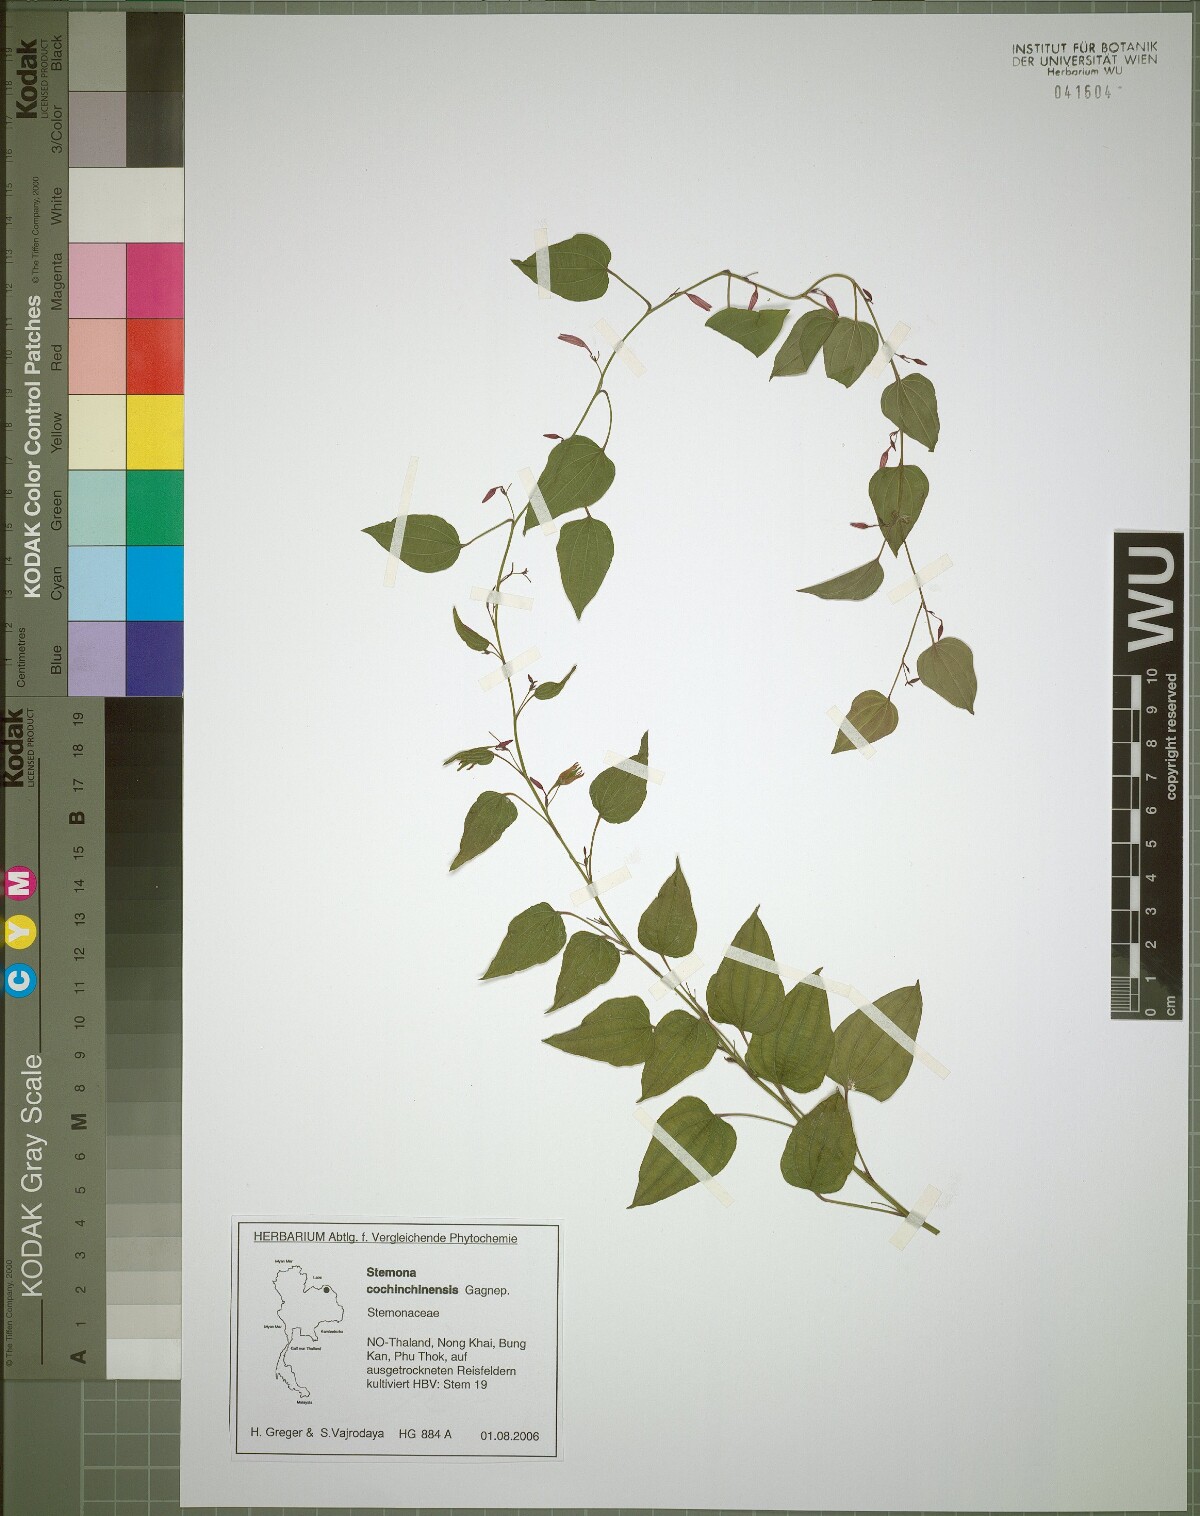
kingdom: Plantae
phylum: Tracheophyta
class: Liliopsida
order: Pandanales
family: Stemonaceae
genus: Stemona
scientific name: Stemona cochinchinensis
